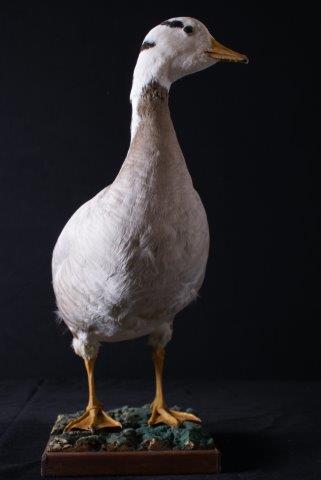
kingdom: Animalia
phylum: Chordata
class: Aves
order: Anseriformes
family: Anatidae
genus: Anser
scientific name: Anser indicus
